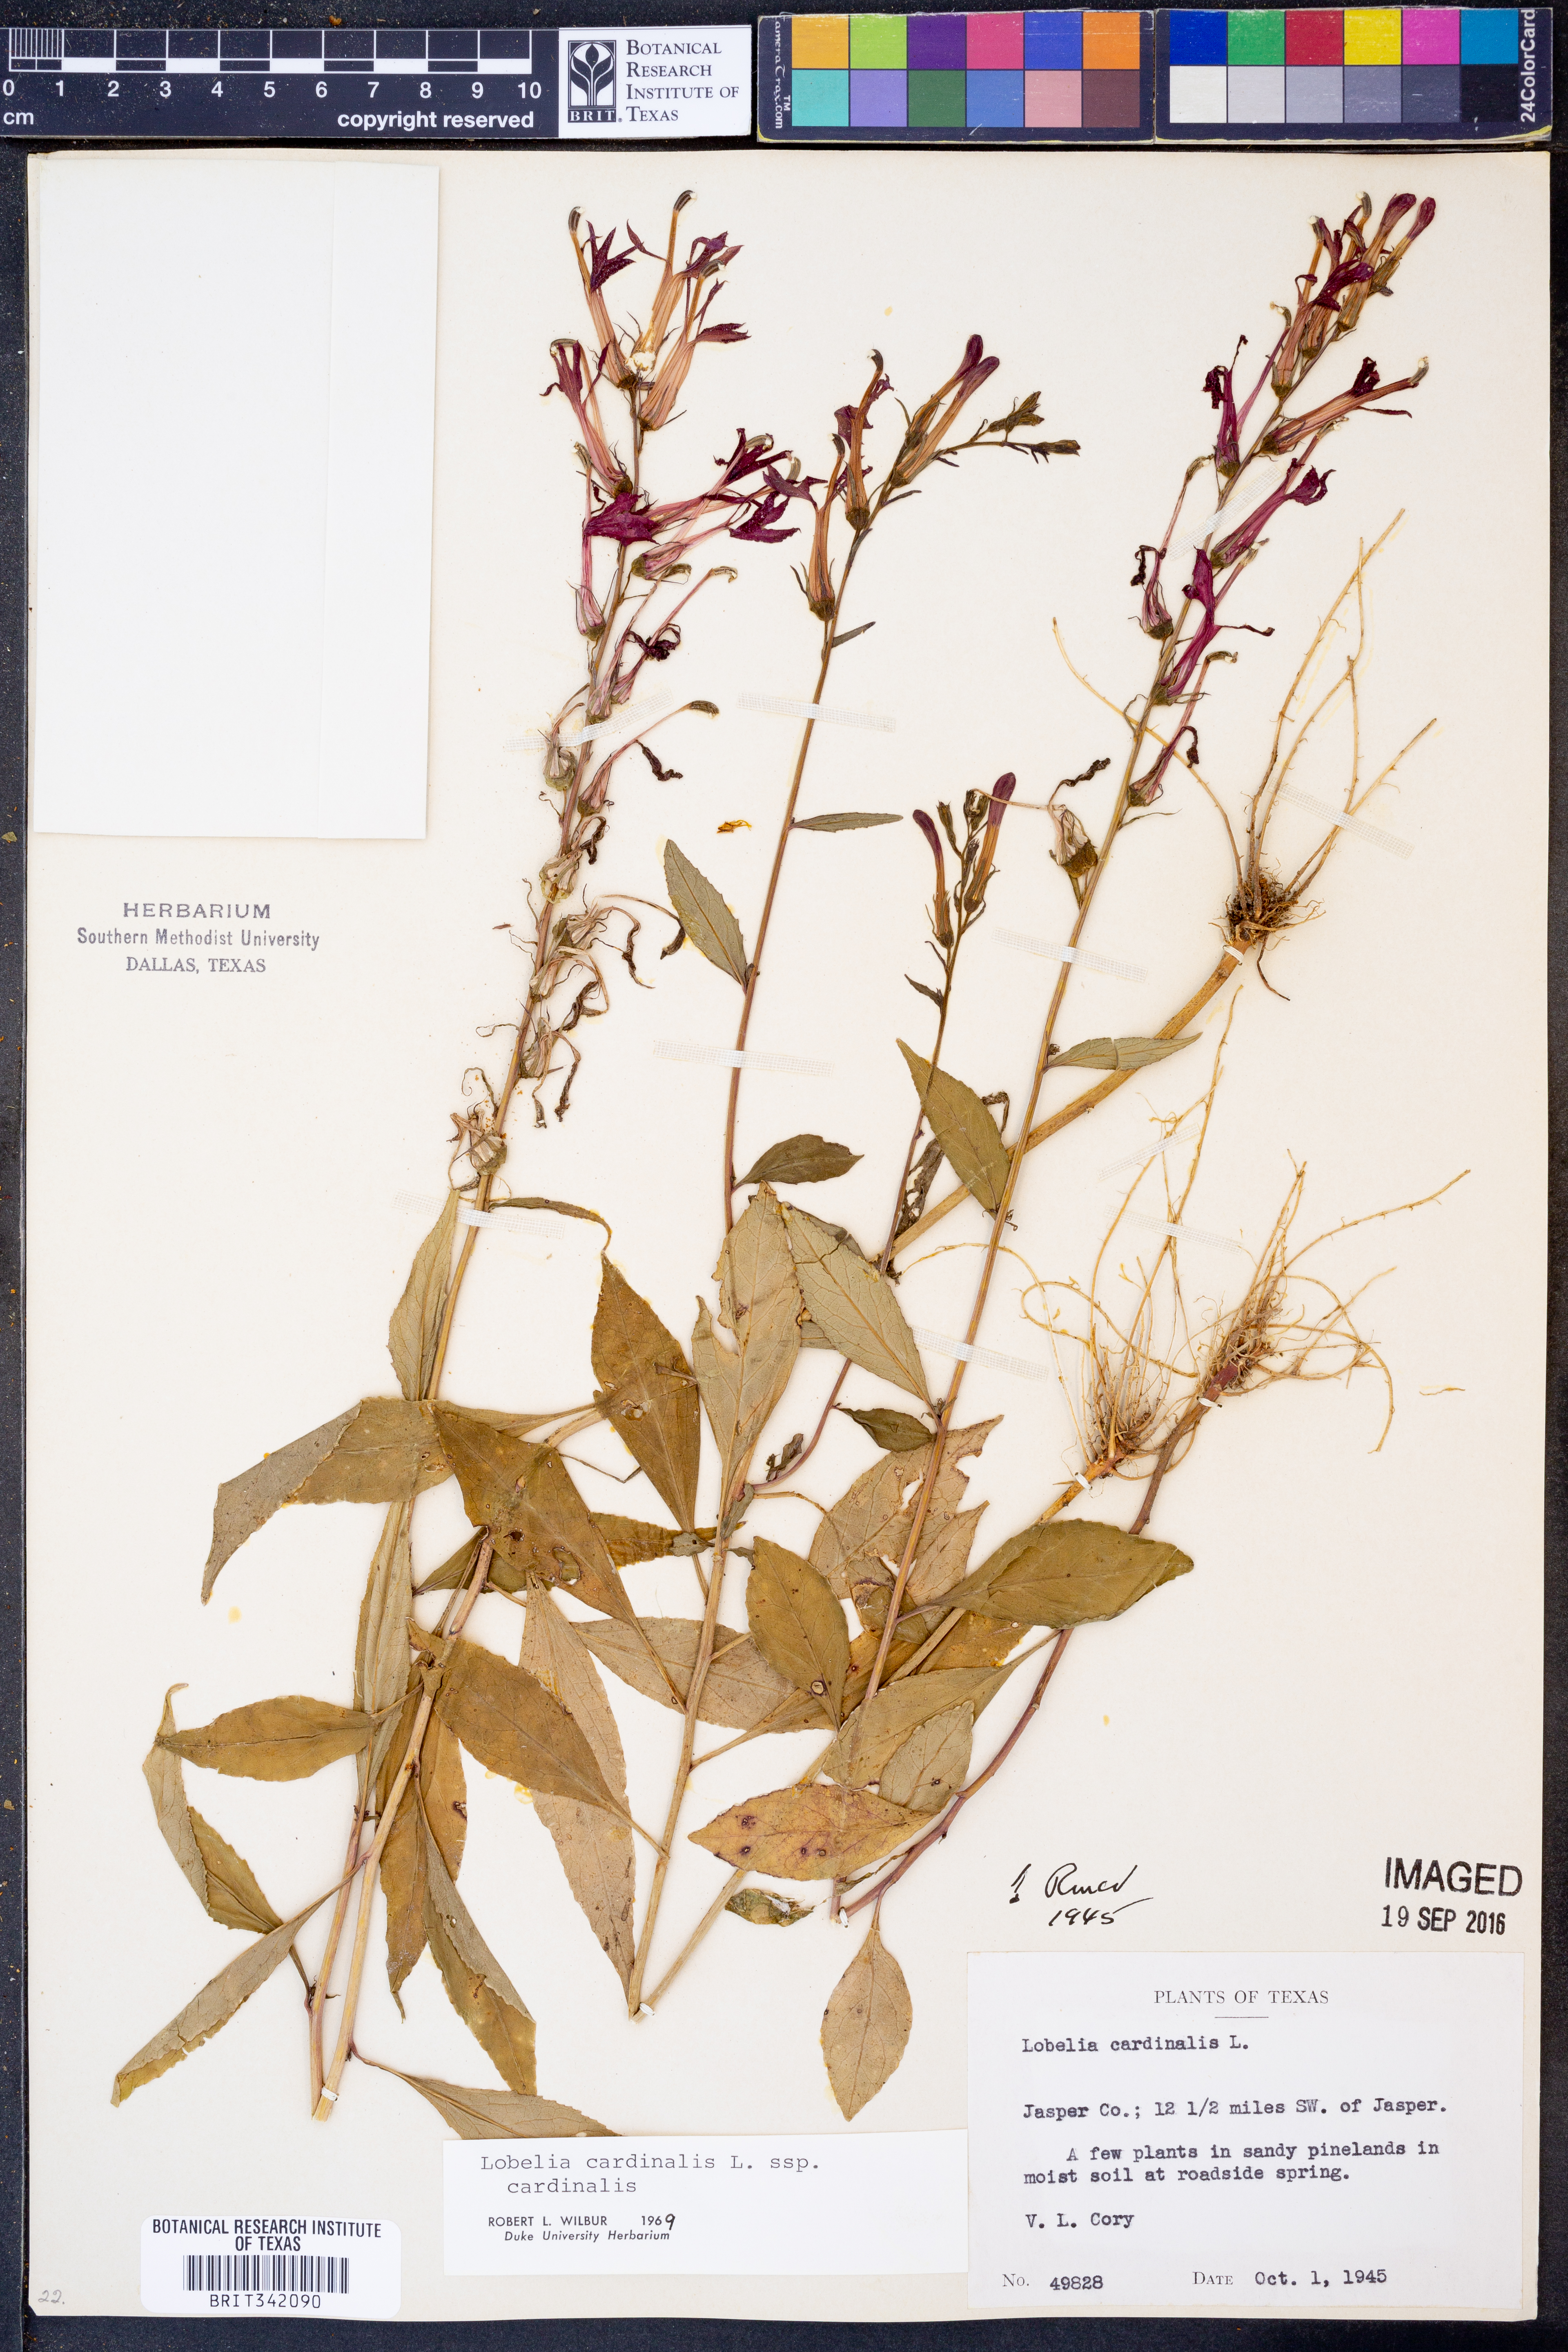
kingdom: Plantae
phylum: Tracheophyta
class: Magnoliopsida
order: Asterales
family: Campanulaceae
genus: Lobelia
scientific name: Lobelia cardinalis
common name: Cardinal flower
